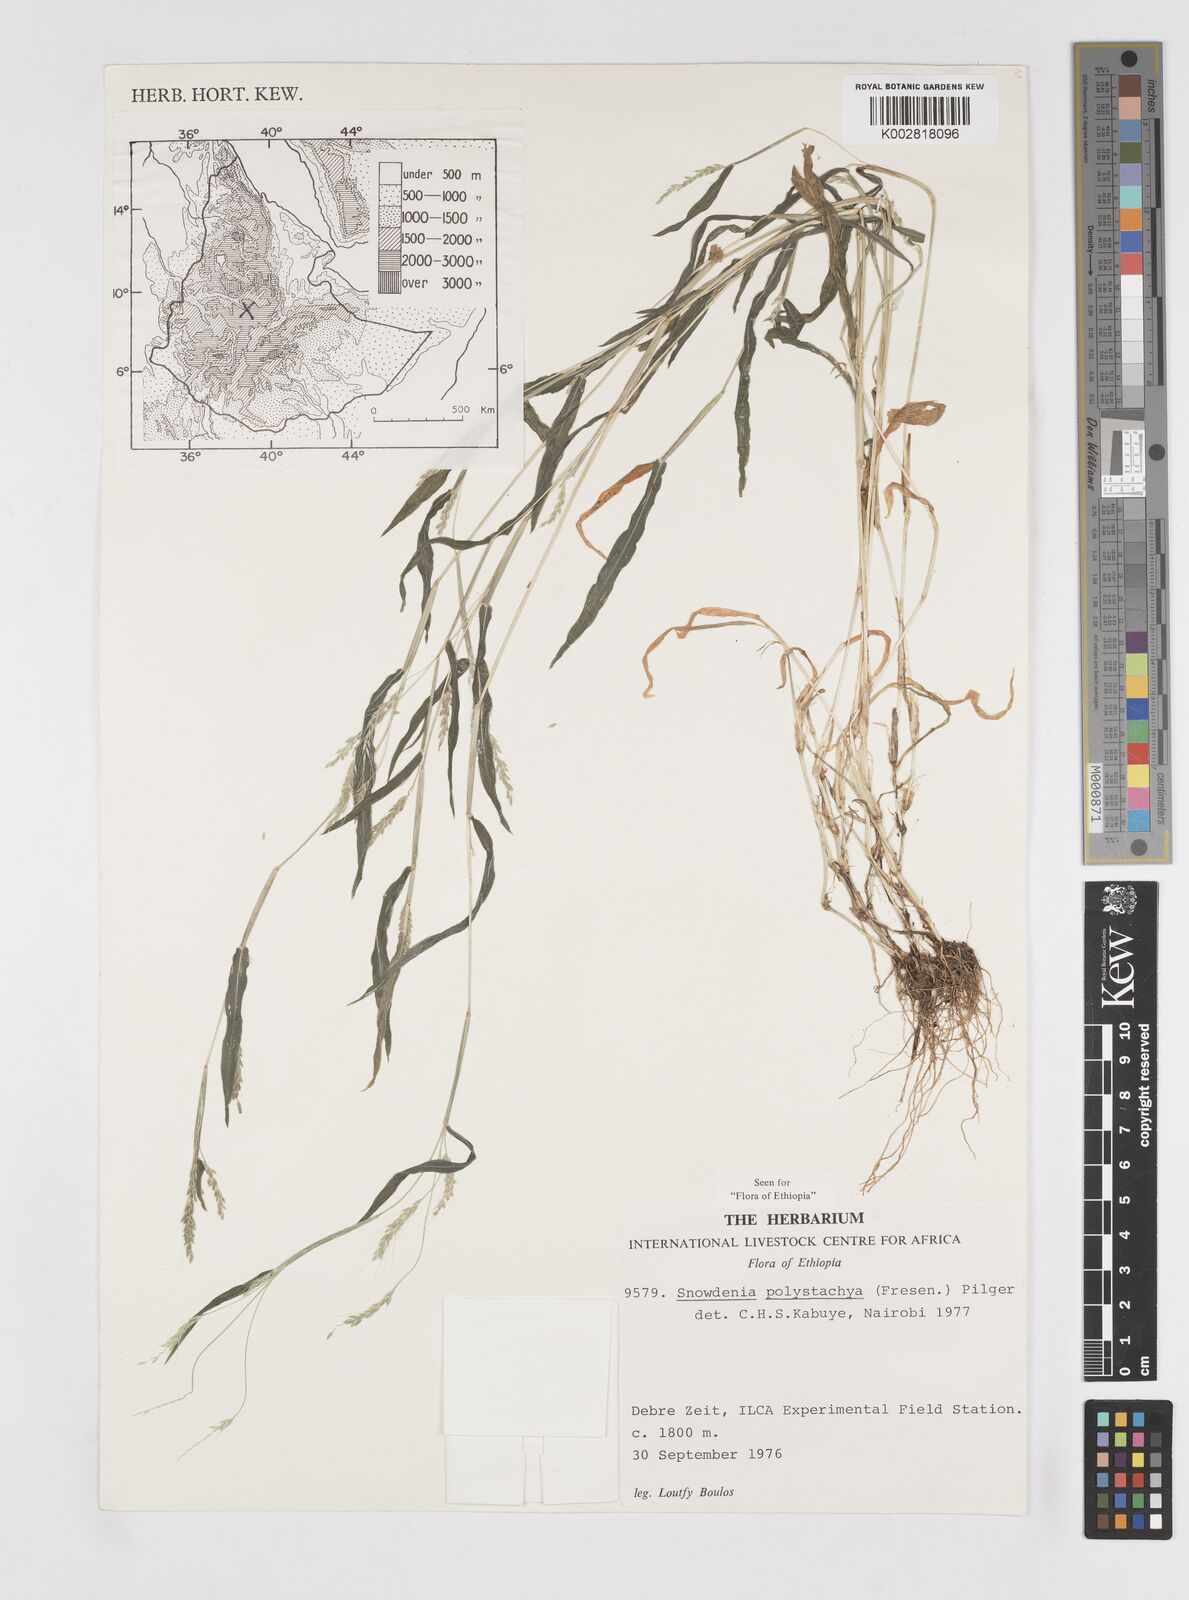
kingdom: Plantae
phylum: Tracheophyta
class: Liliopsida
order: Poales
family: Poaceae
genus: Snowdenia
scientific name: Snowdenia polystachya
